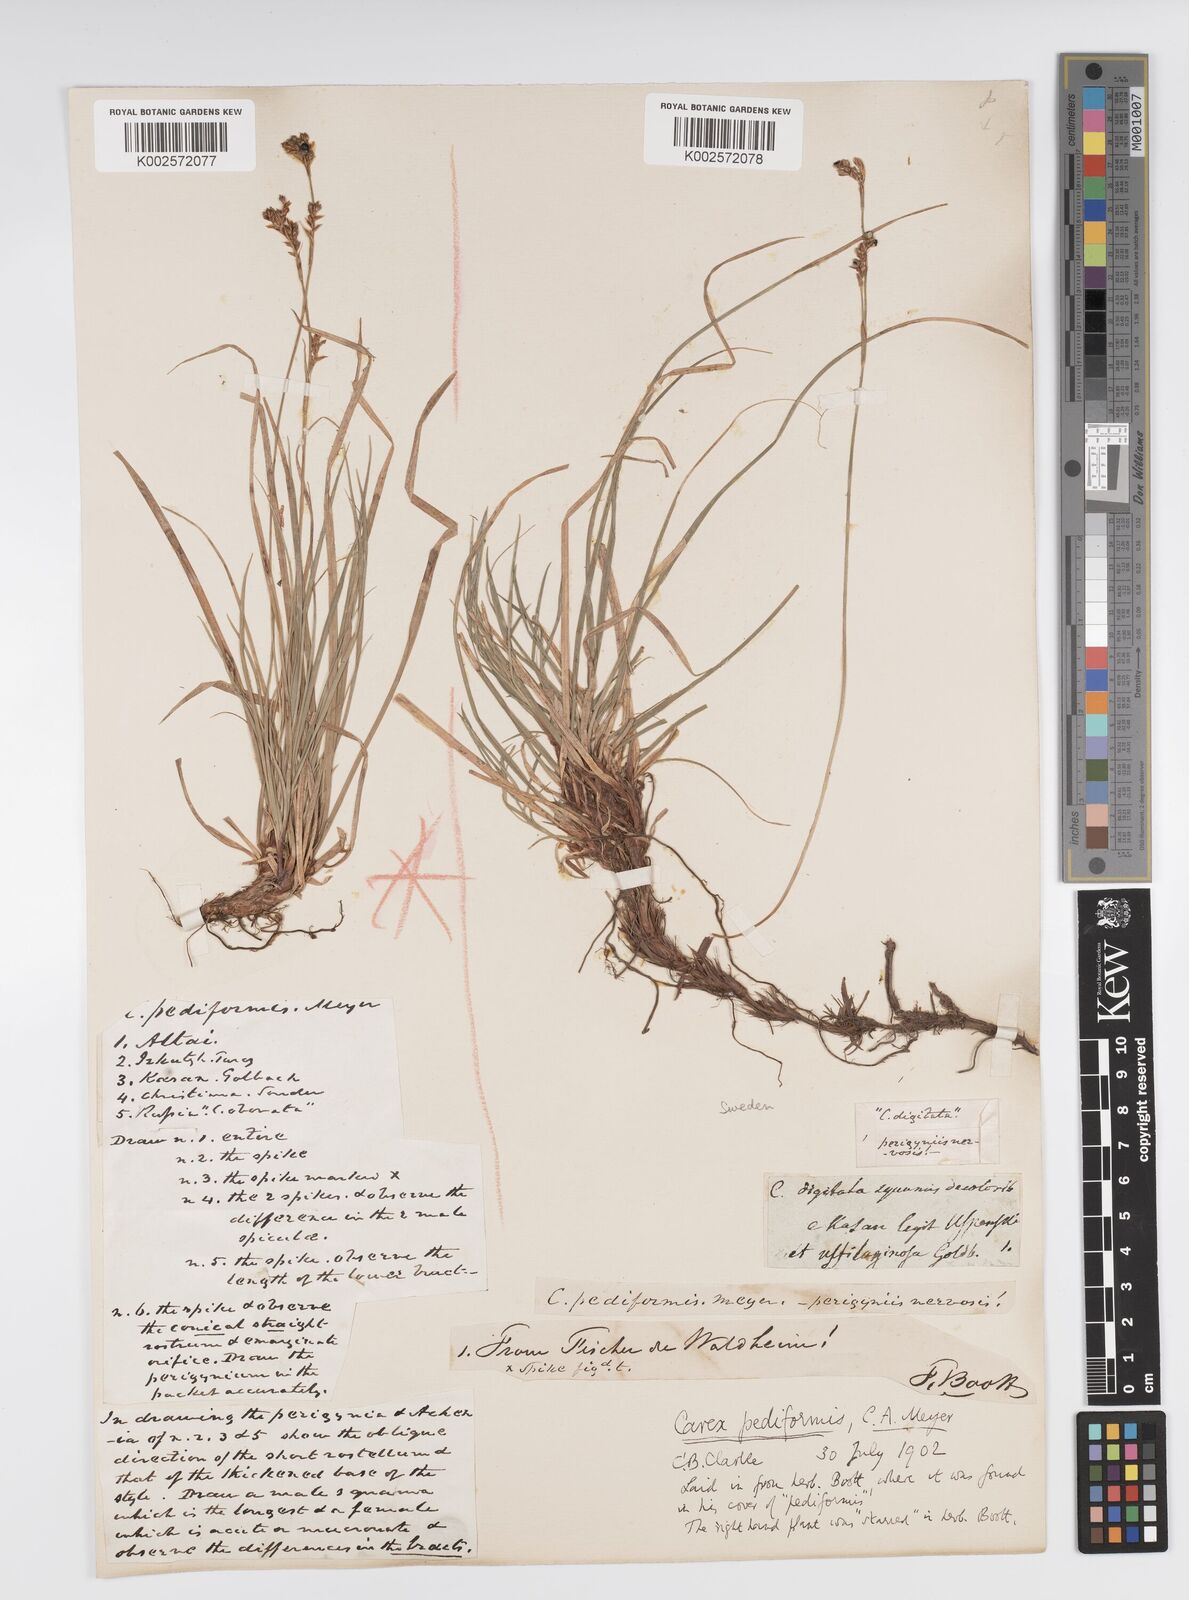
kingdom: Plantae
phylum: Tracheophyta
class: Liliopsida
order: Poales
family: Cyperaceae
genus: Carex
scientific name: Carex pediformis
